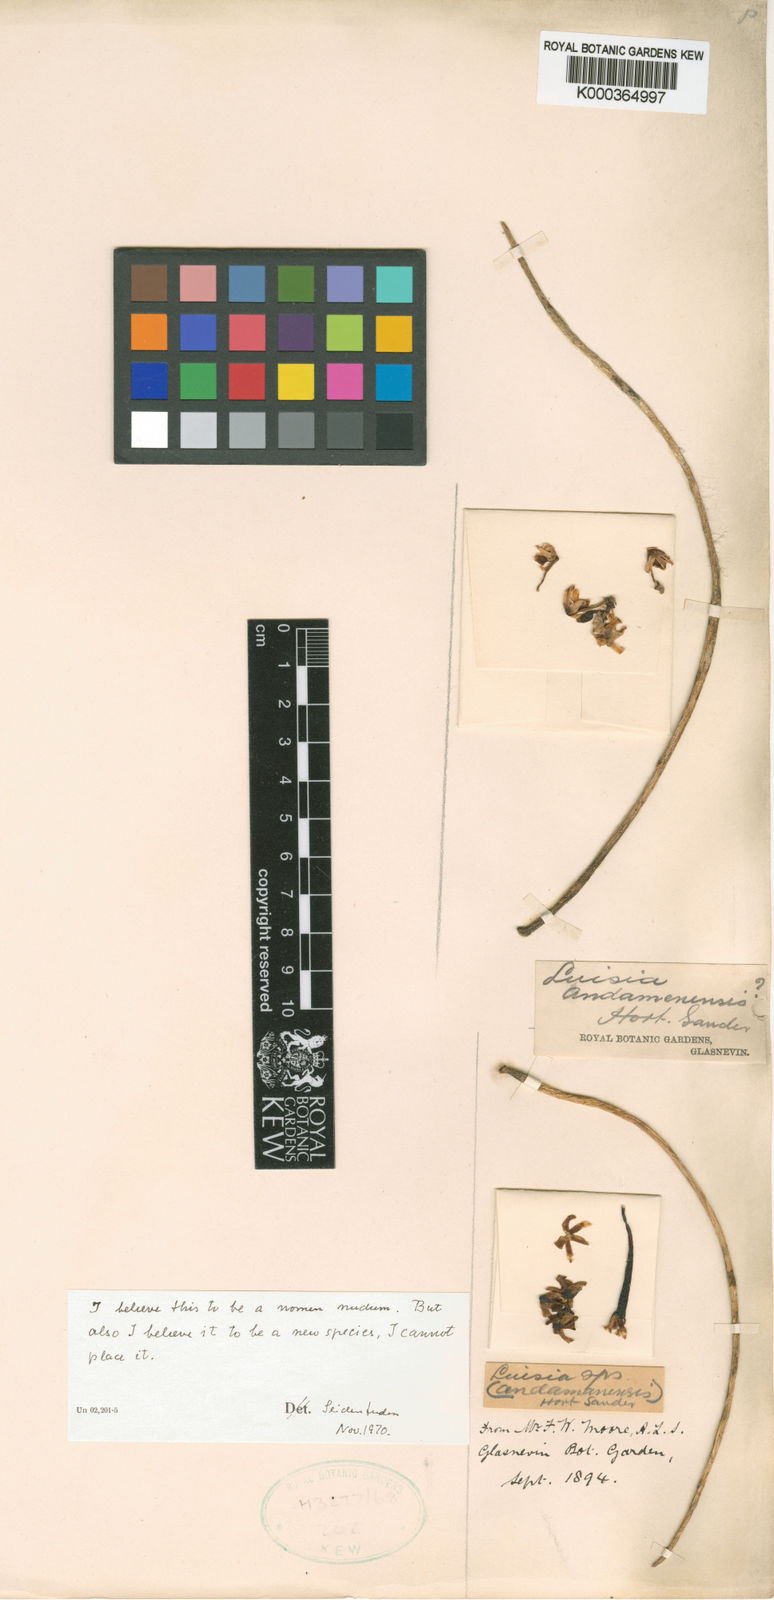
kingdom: Plantae
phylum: Tracheophyta
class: Liliopsida
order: Asparagales
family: Orchidaceae
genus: Luisia
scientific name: Luisia
